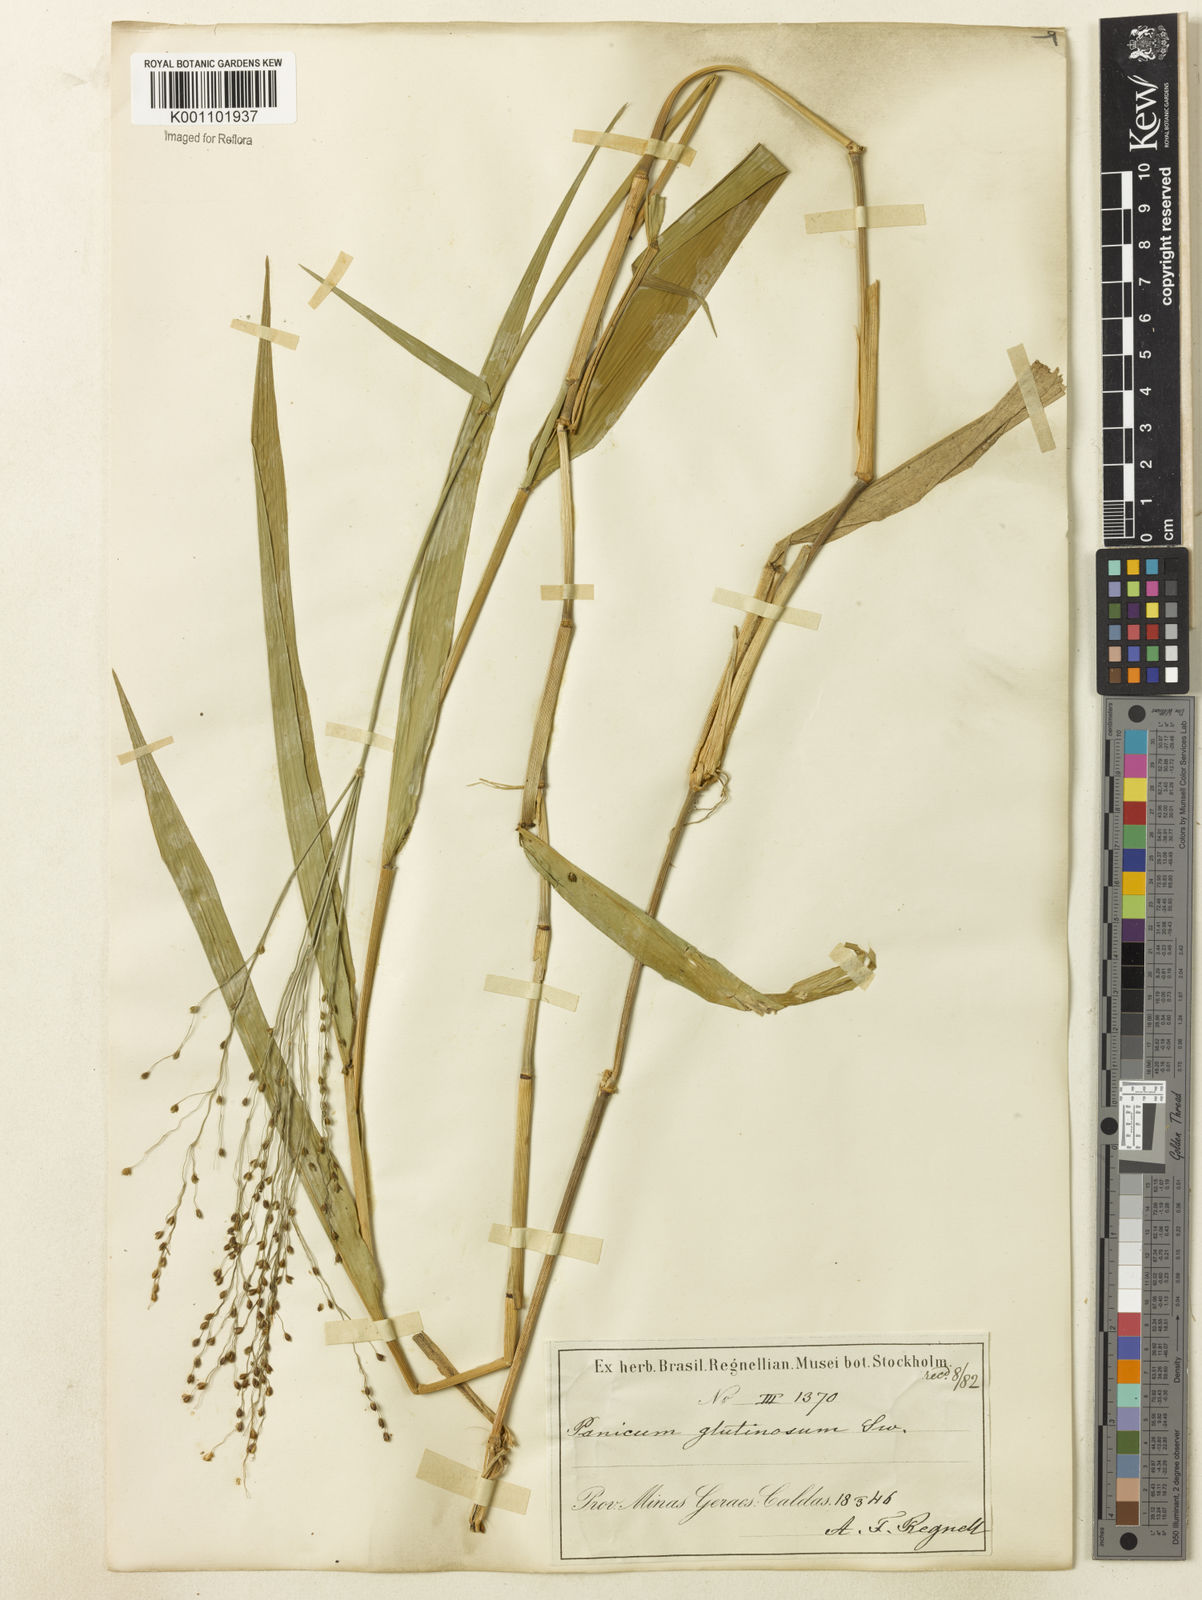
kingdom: Plantae
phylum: Tracheophyta
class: Liliopsida
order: Poales
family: Poaceae
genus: Homolepis
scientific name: Homolepis glutinosa
